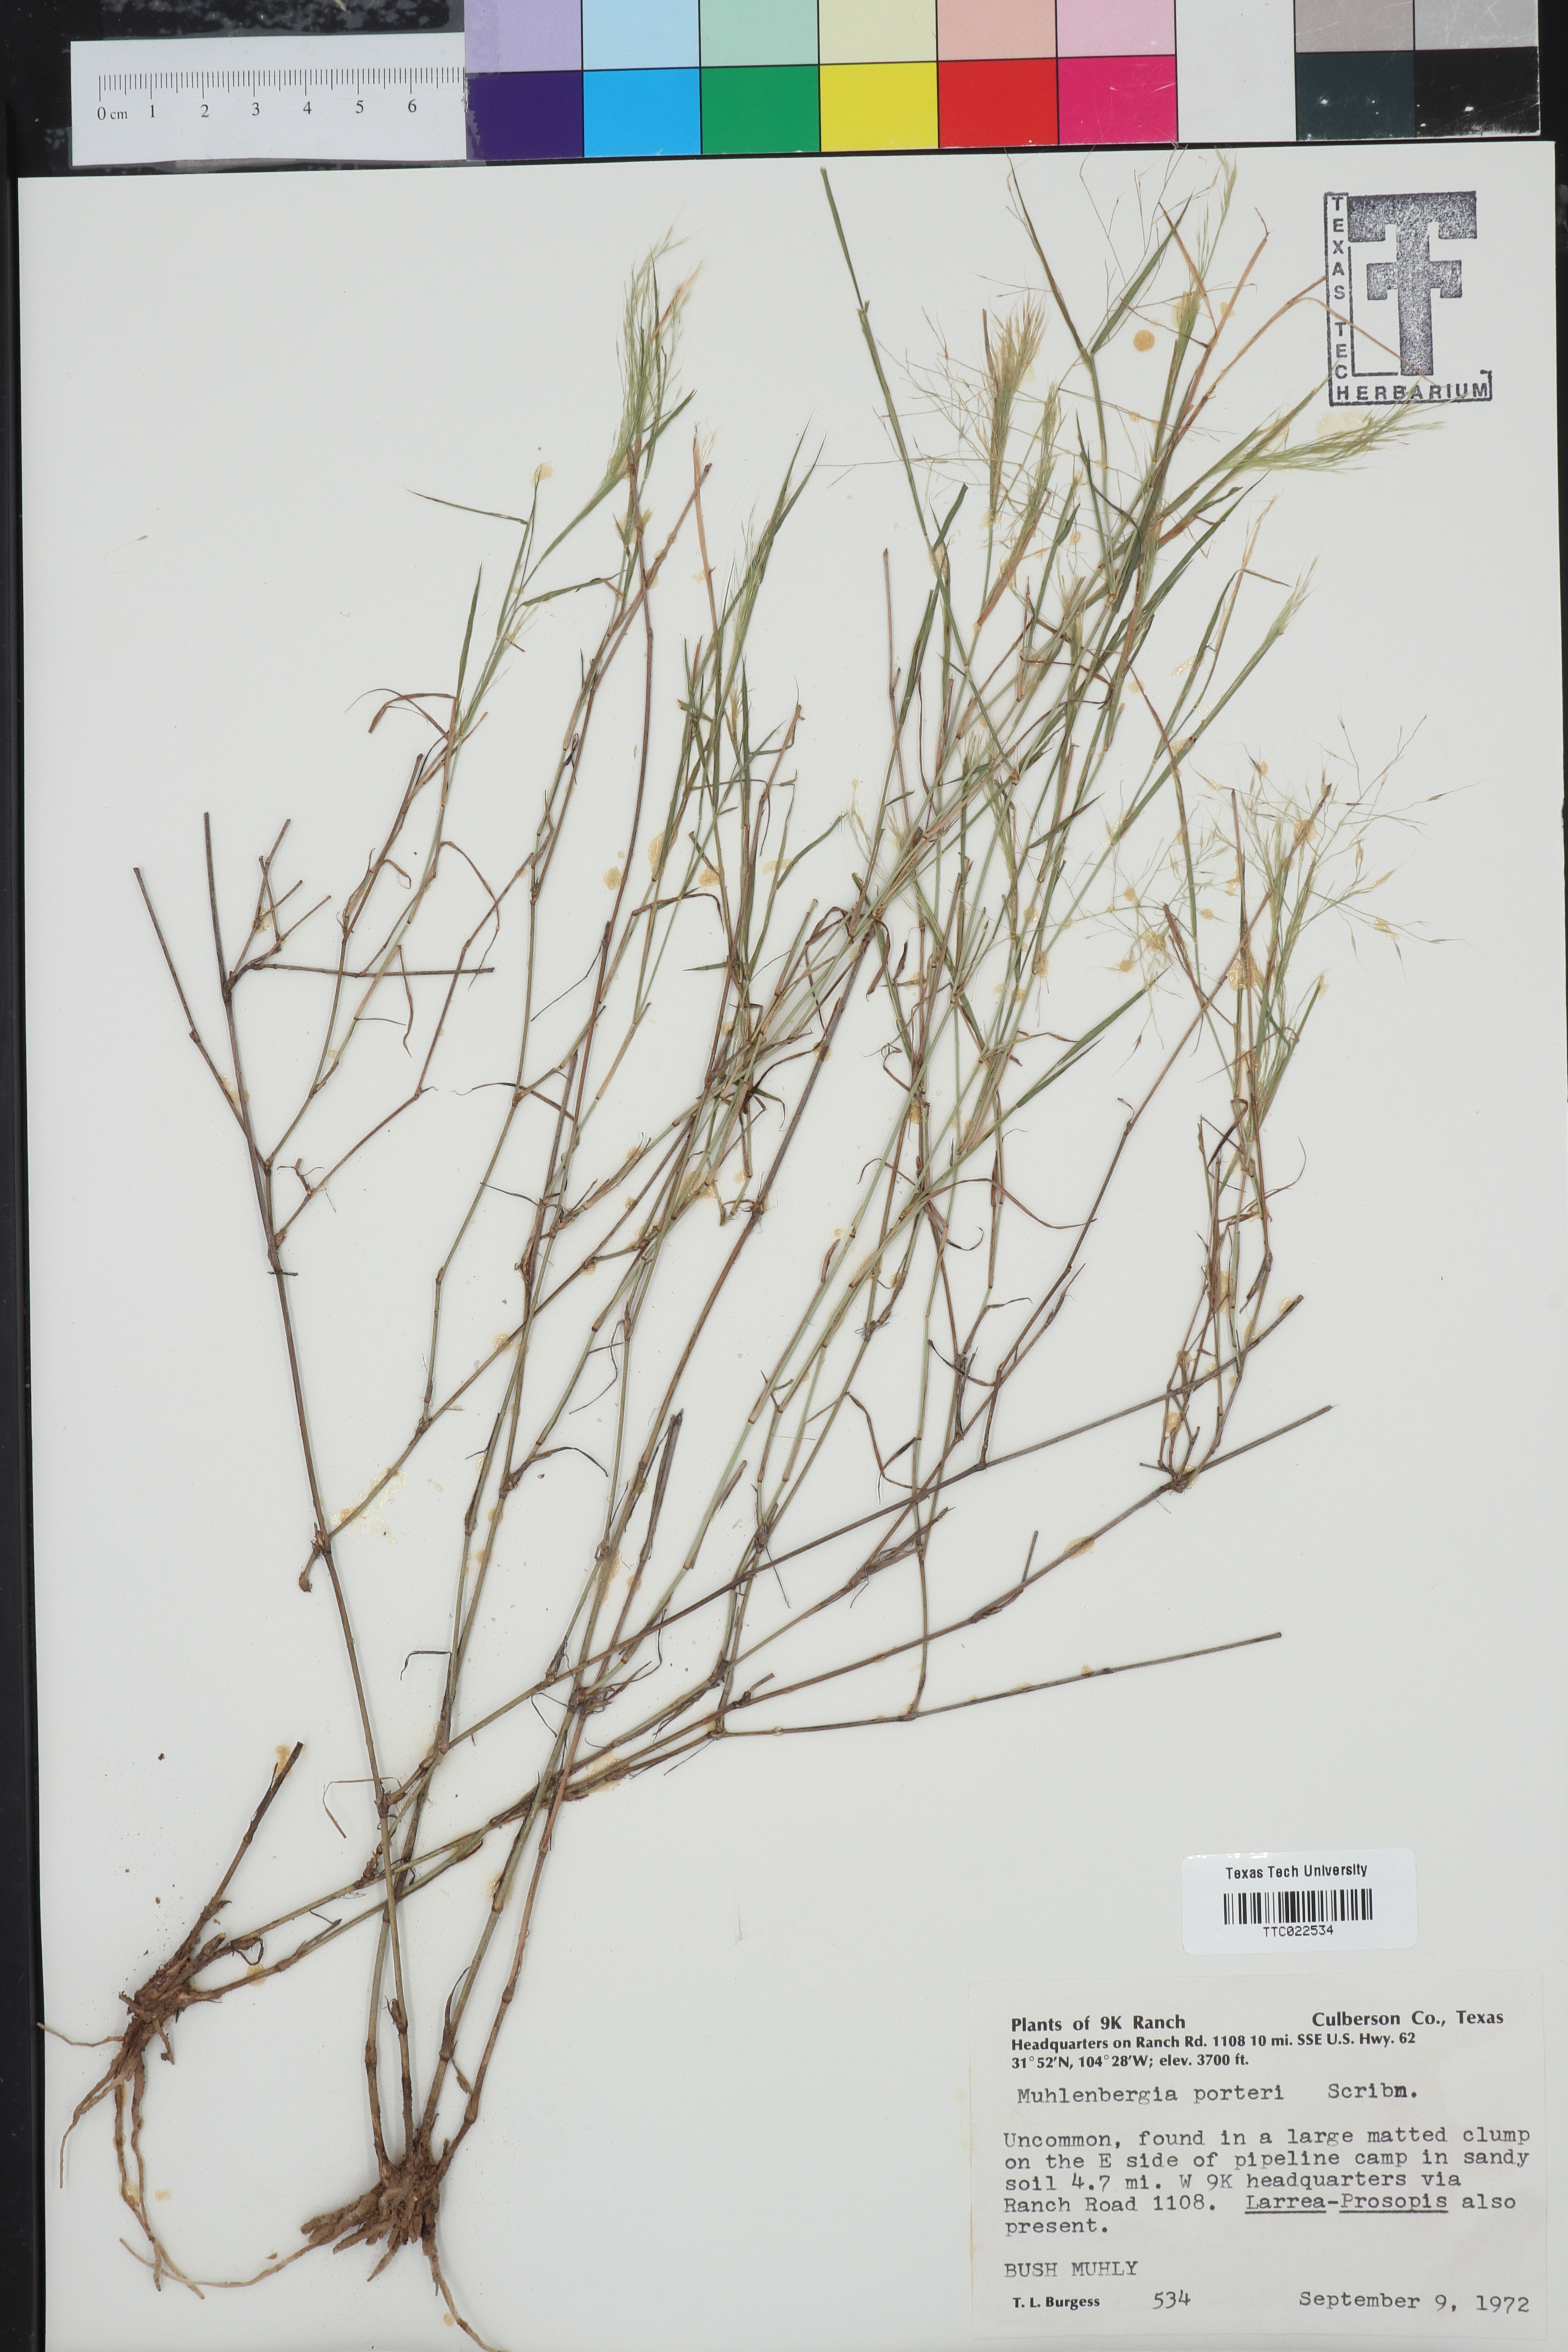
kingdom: Plantae
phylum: Tracheophyta
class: Liliopsida
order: Poales
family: Poaceae
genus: Muhlenbergia
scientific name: Muhlenbergia porteri
